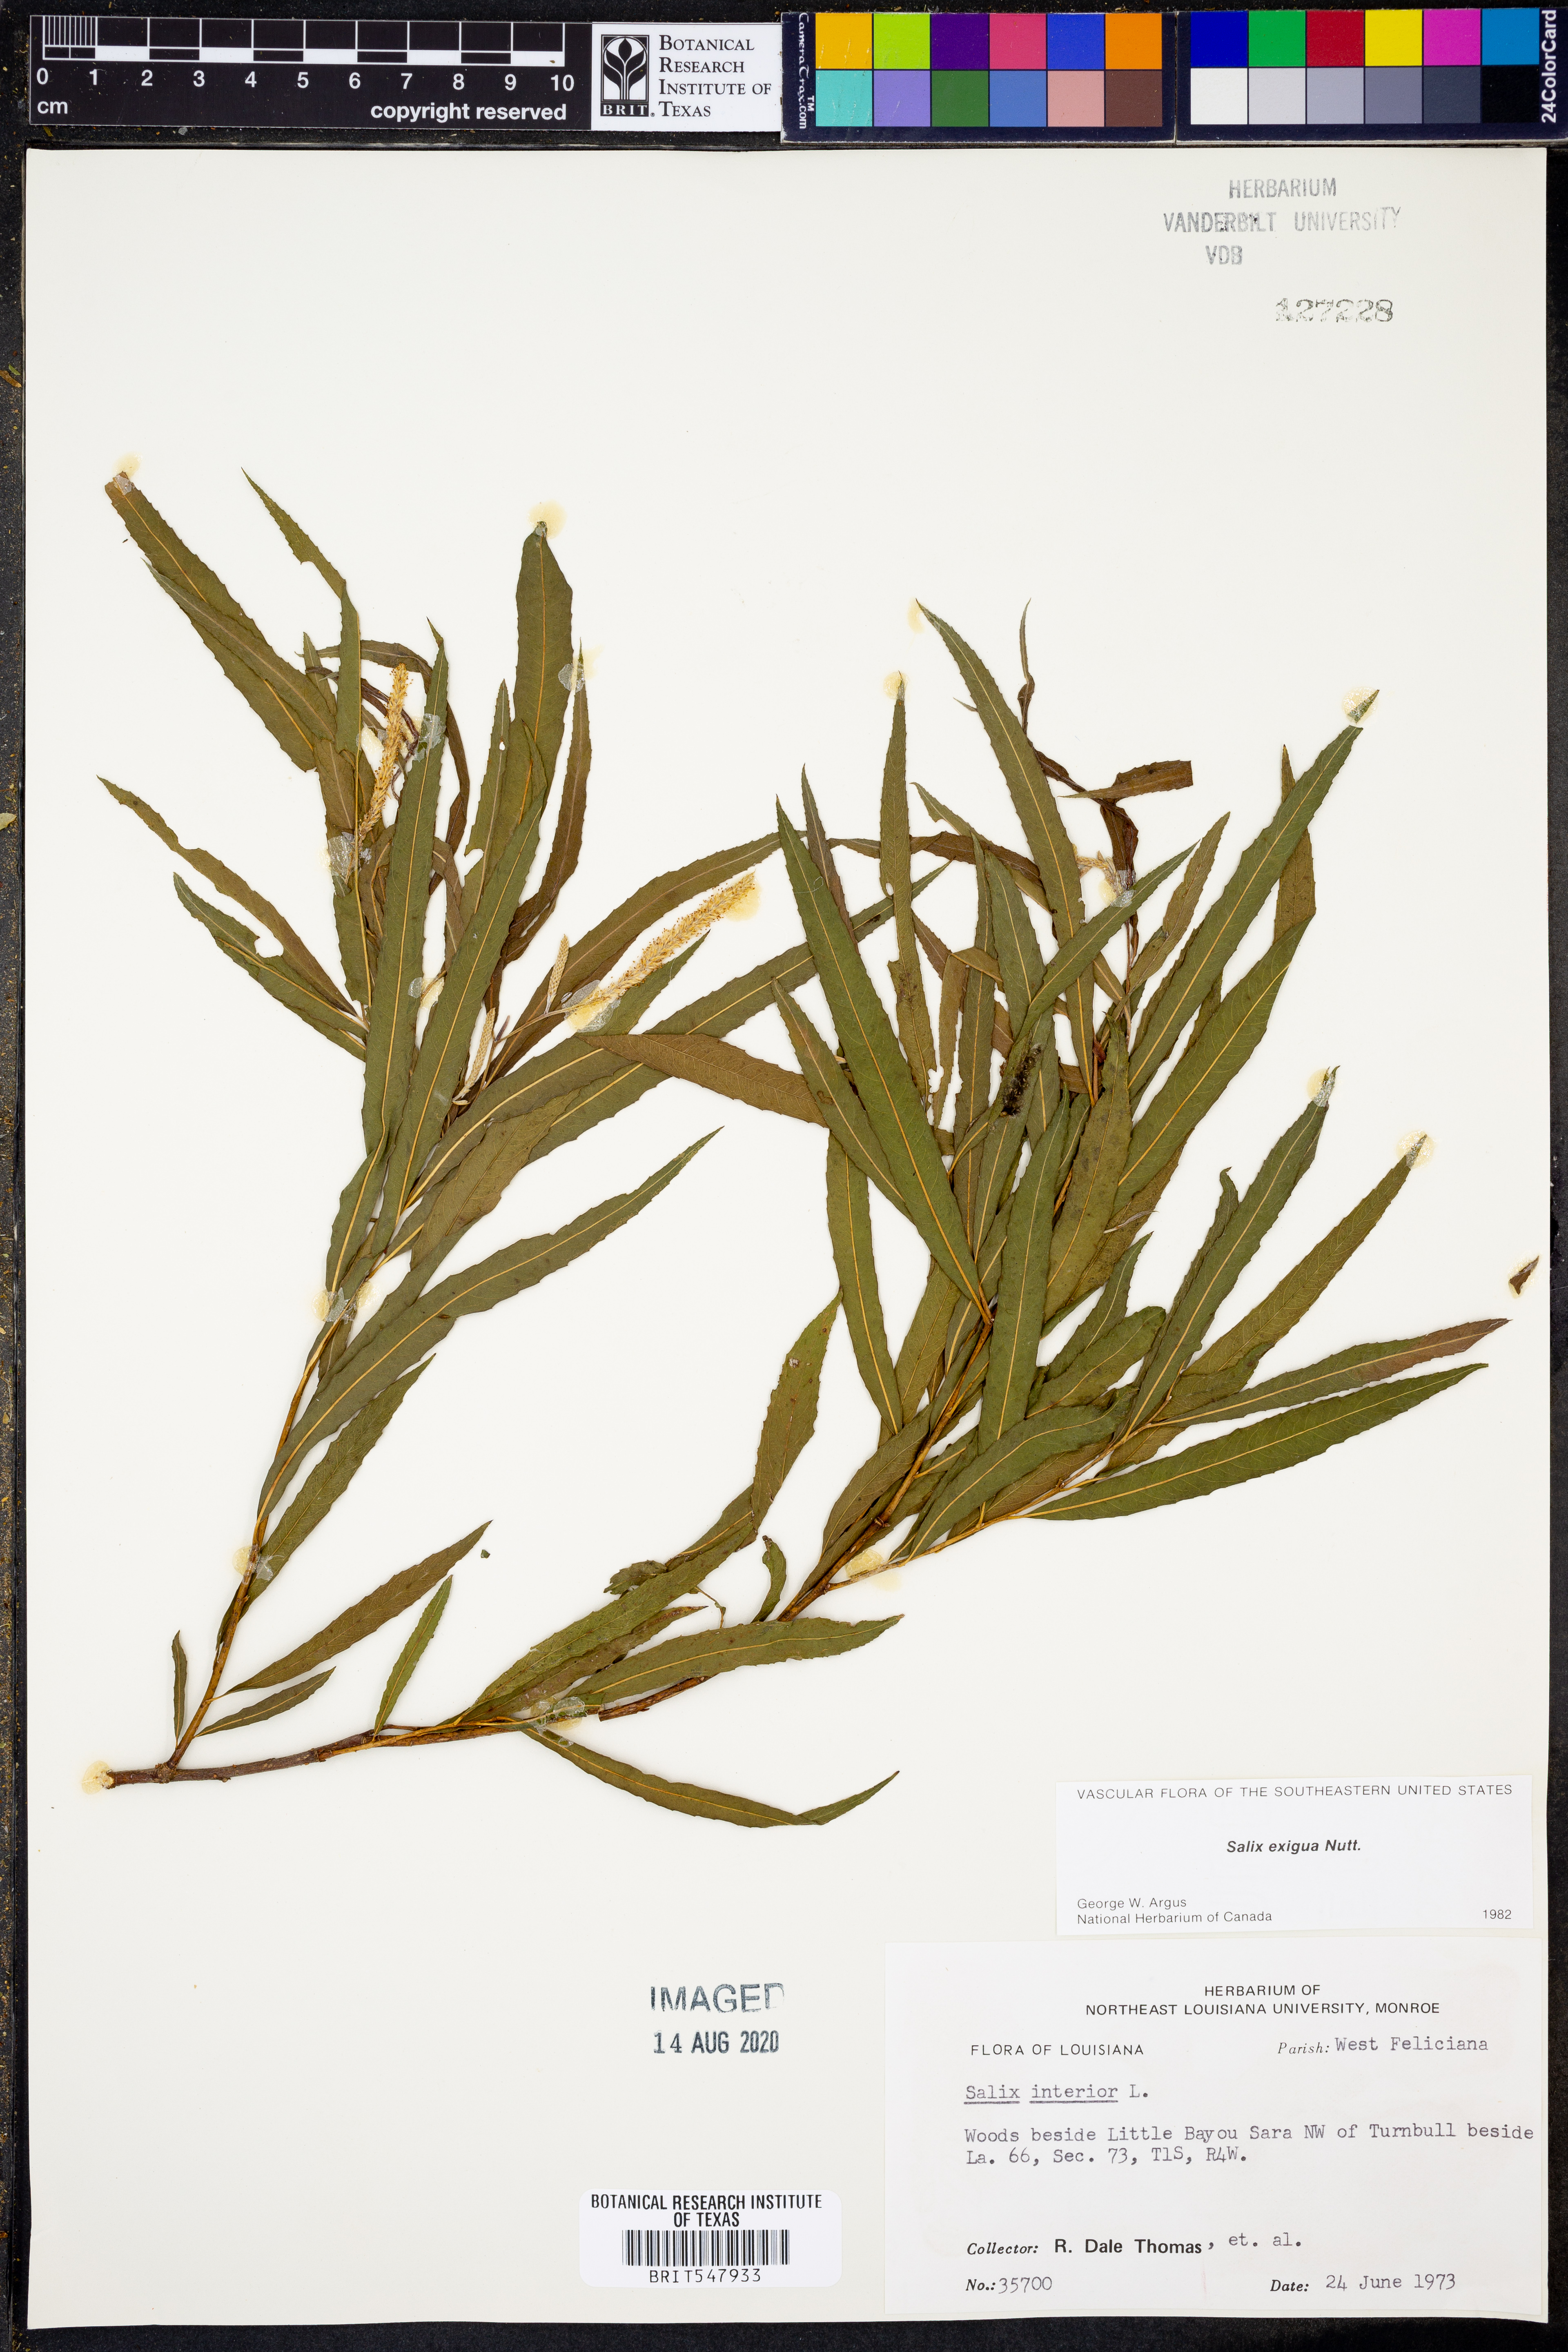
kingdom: Plantae
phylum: Tracheophyta
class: Magnoliopsida
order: Malpighiales
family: Salicaceae
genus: Salix
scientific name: Salix exigua
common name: Coyote willow
